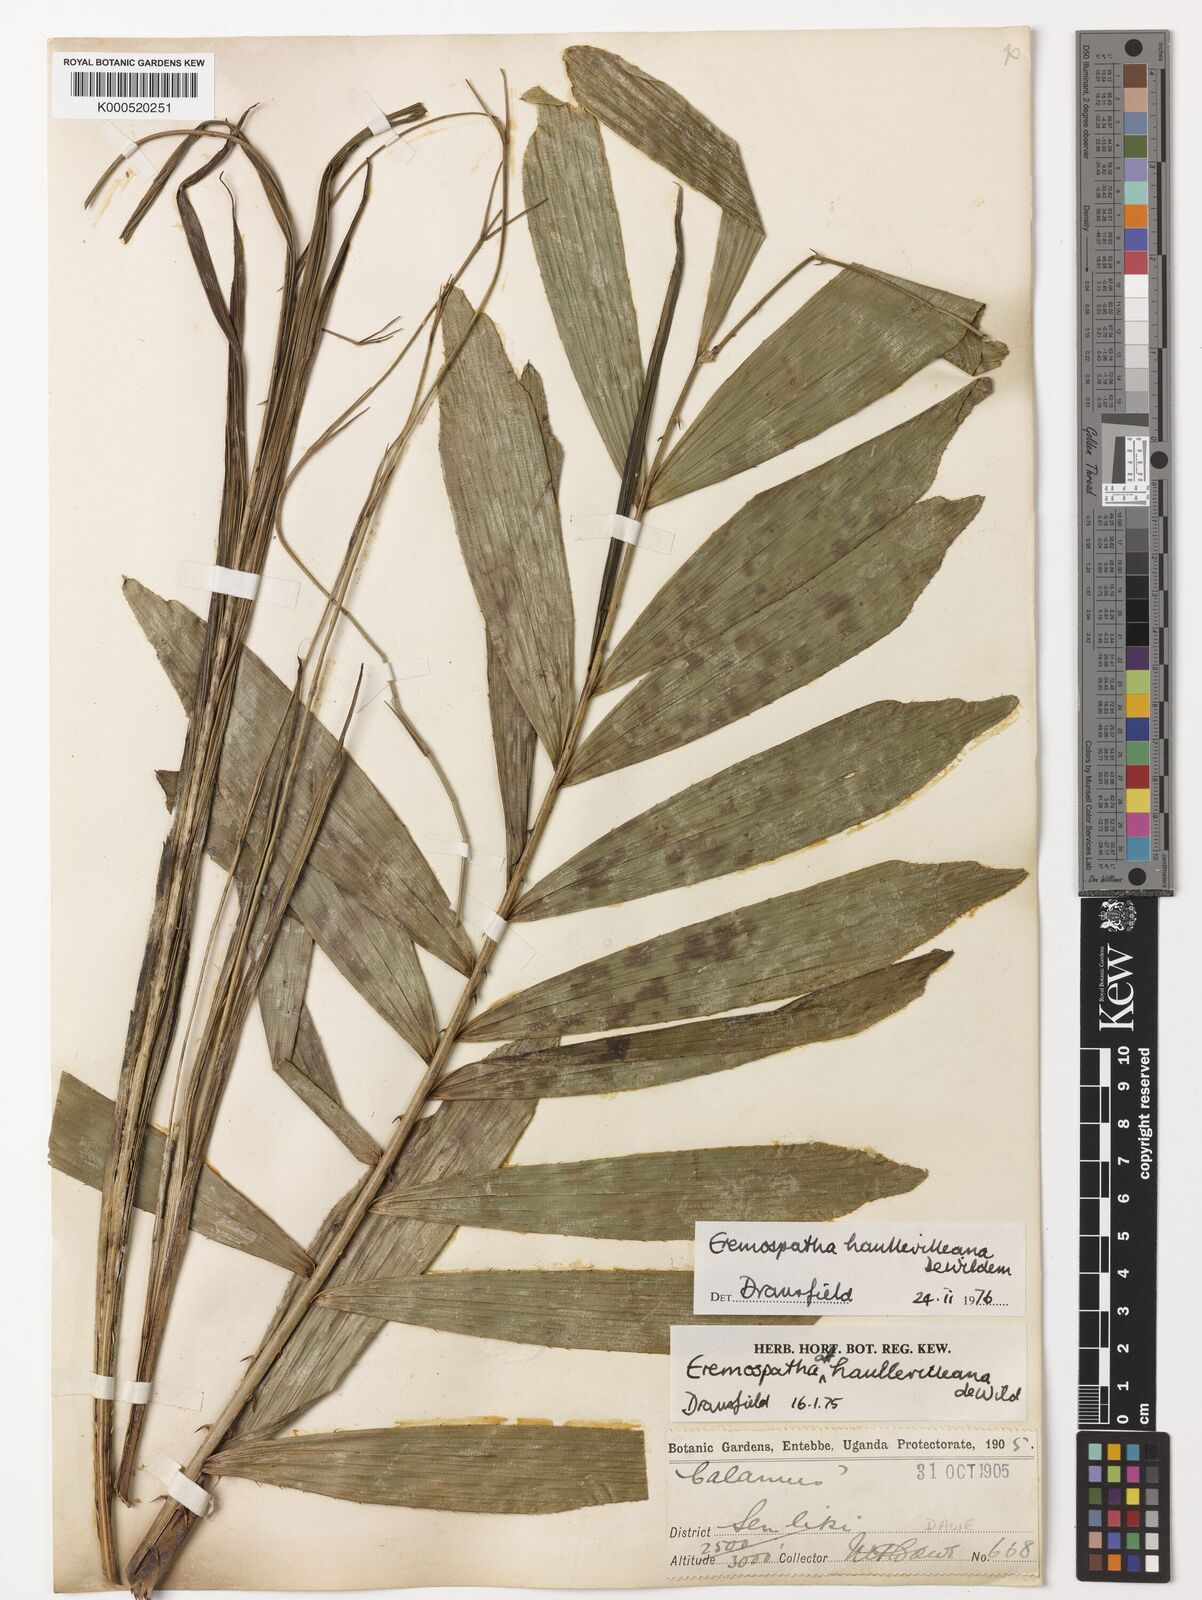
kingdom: Plantae
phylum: Tracheophyta
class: Liliopsida
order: Arecales
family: Arecaceae
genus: Eremospatha
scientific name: Eremospatha haullevilleana
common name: Rattan
